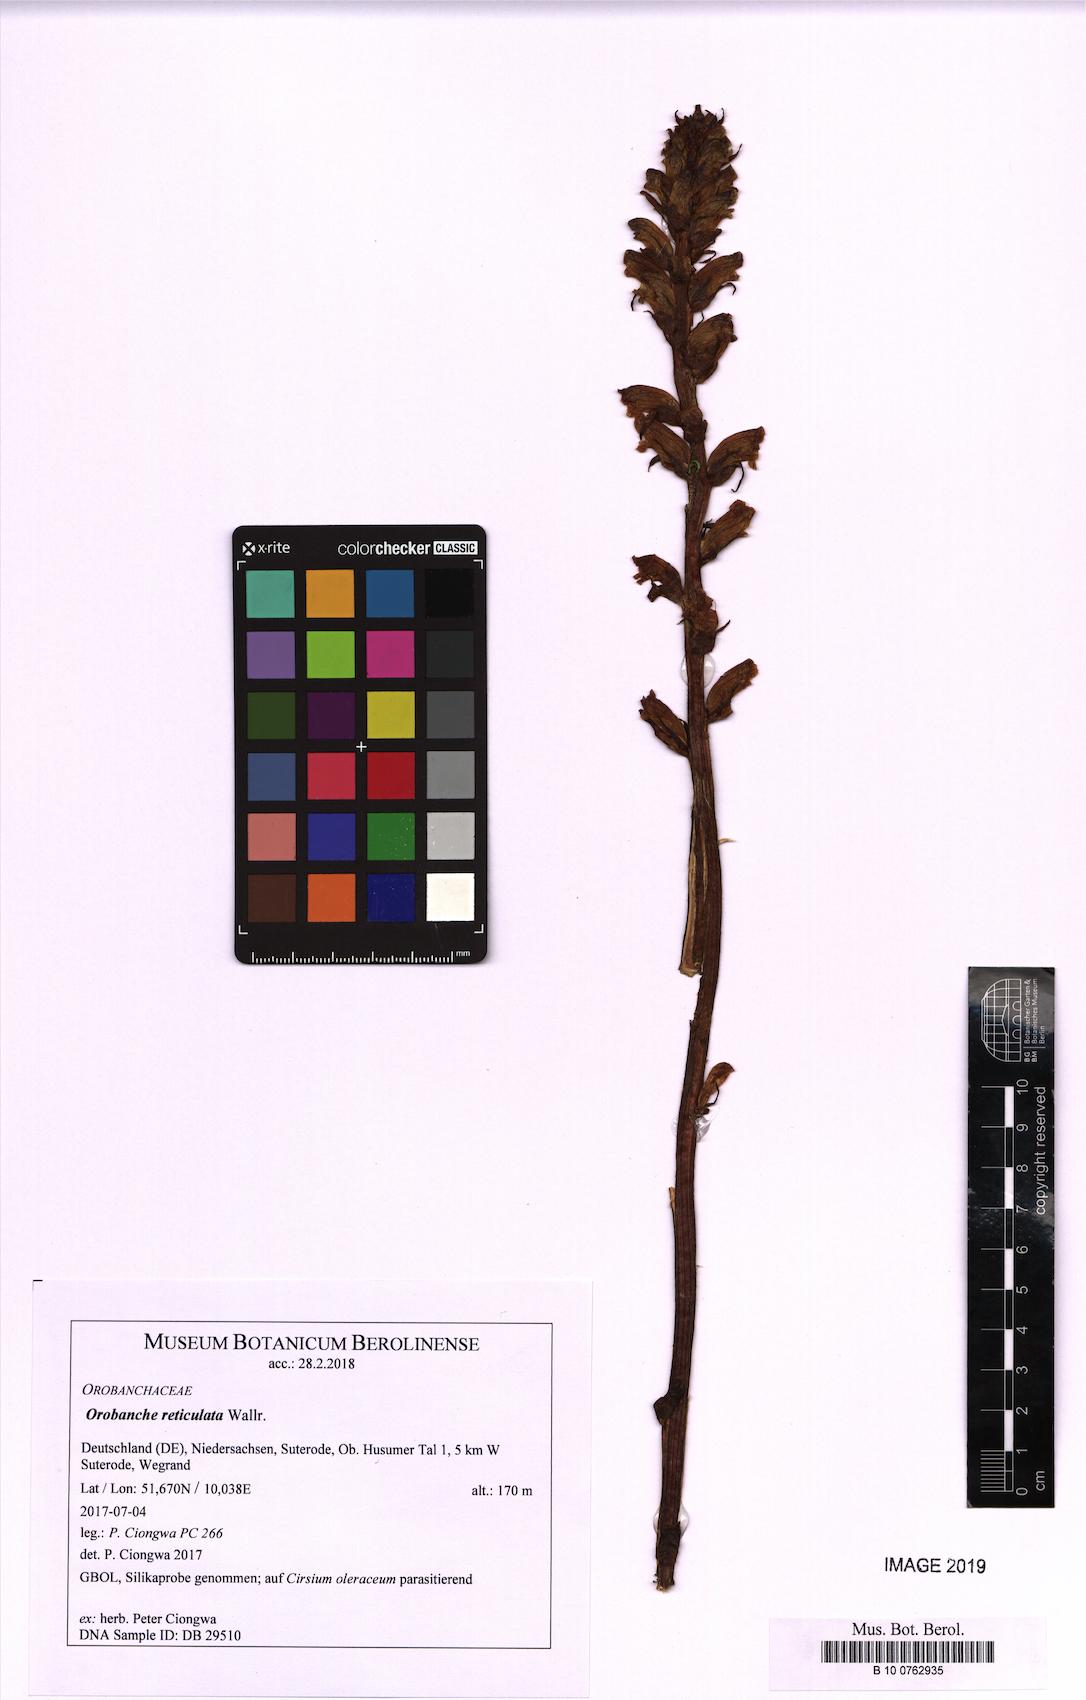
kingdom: Plantae
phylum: Tracheophyta
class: Magnoliopsida
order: Lamiales
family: Orobanchaceae
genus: Orobanche
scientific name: Orobanche reticulata
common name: Thistle broomrape
